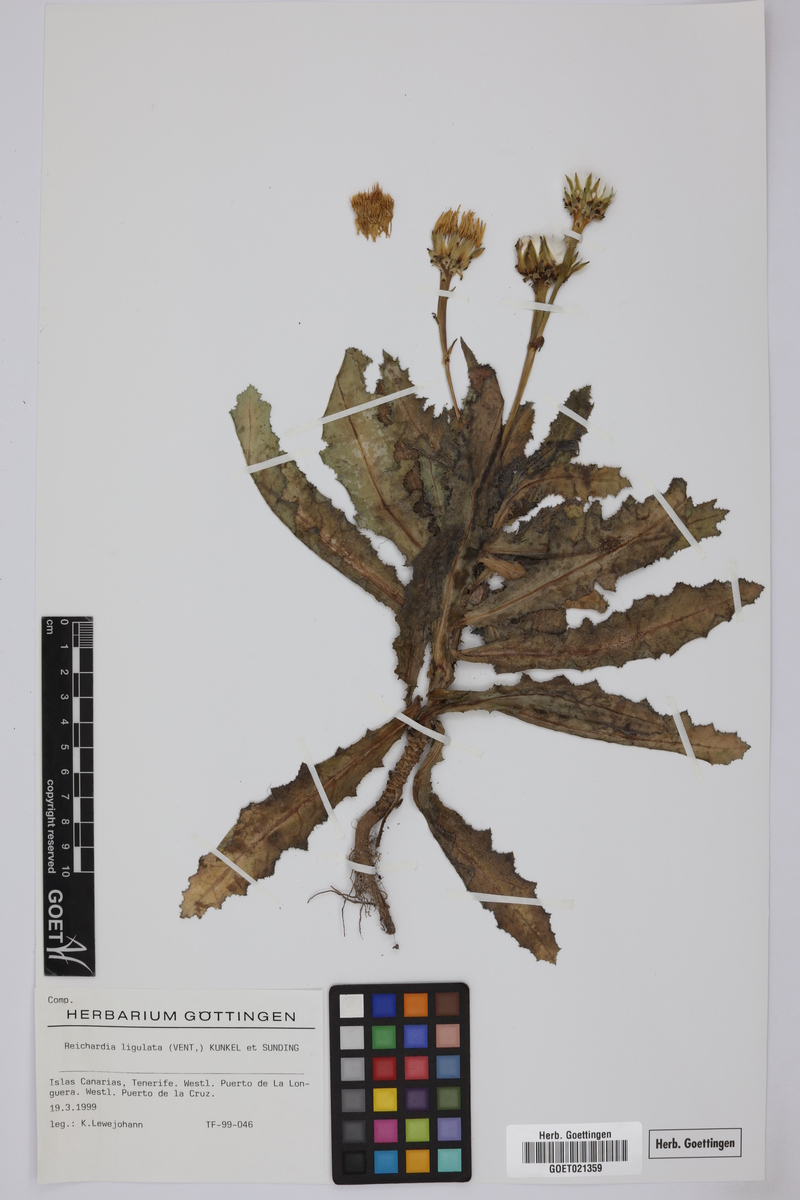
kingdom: Plantae
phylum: Tracheophyta
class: Magnoliopsida
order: Asterales
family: Asteraceae
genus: Reichardia
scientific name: Reichardia ligulata
